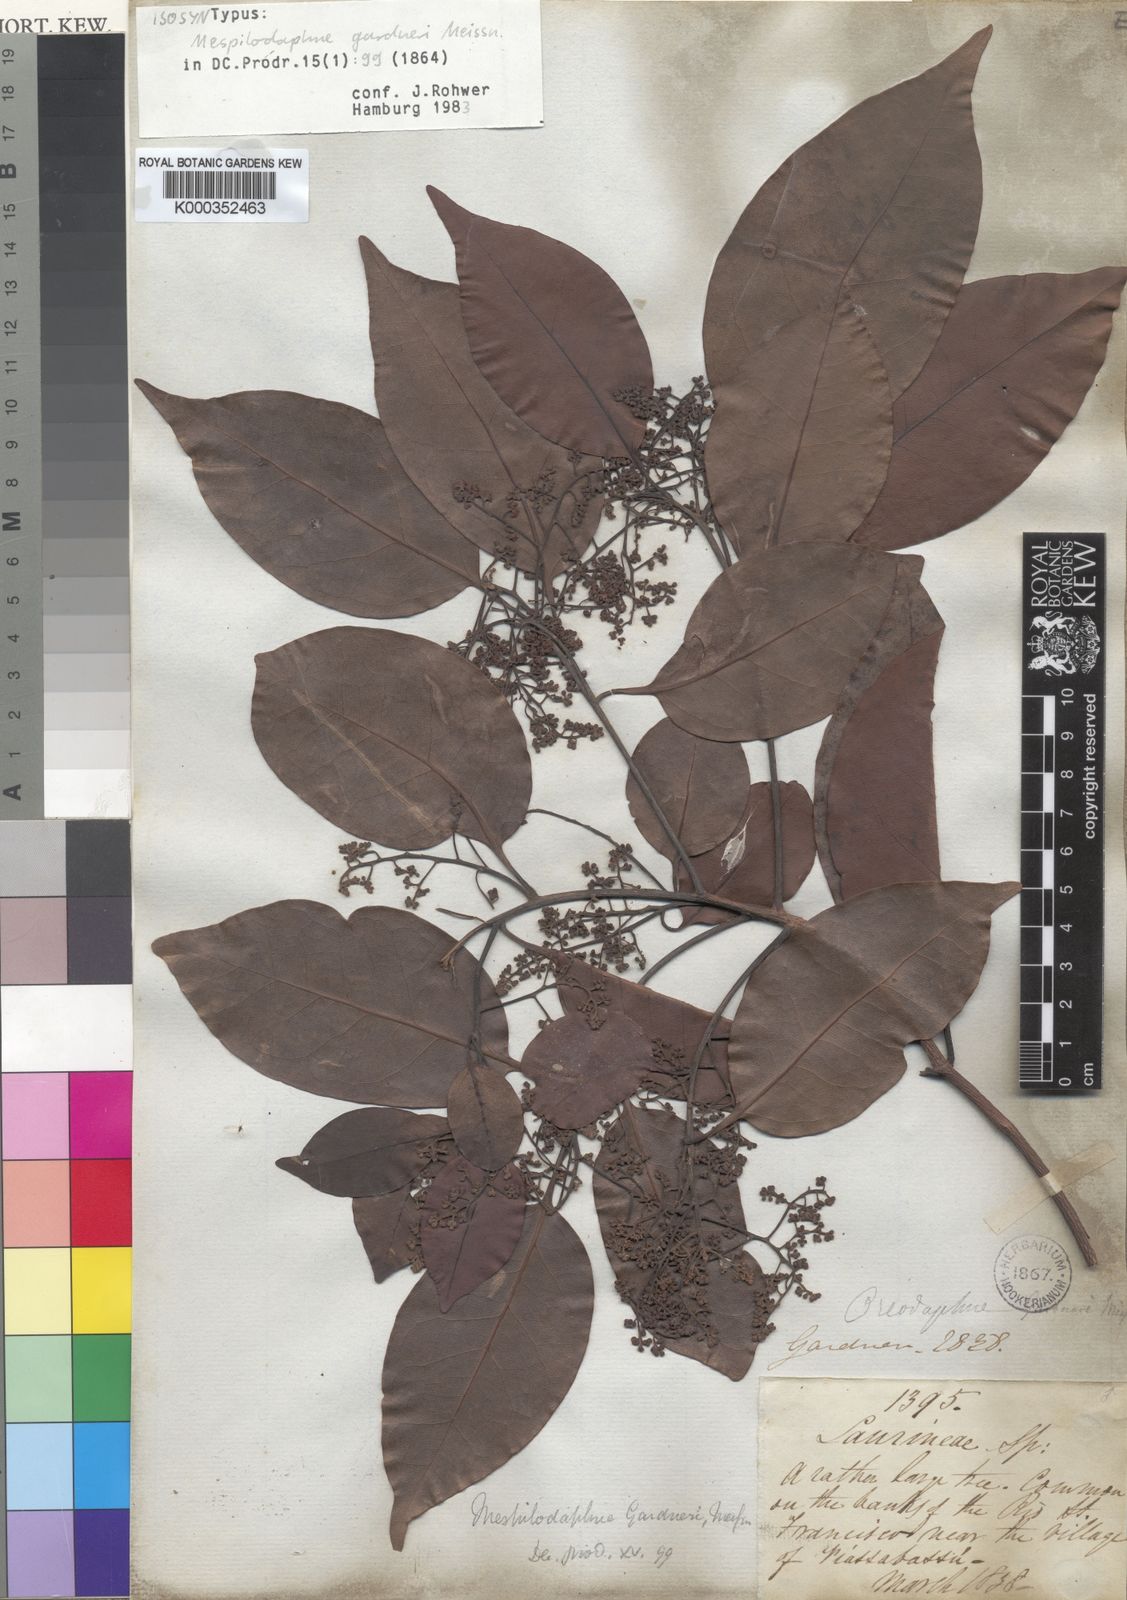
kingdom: Plantae
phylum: Tracheophyta
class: Magnoliopsida
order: Laurales
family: Lauraceae
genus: Mespilodaphne
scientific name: Mespilodaphne gardneri
